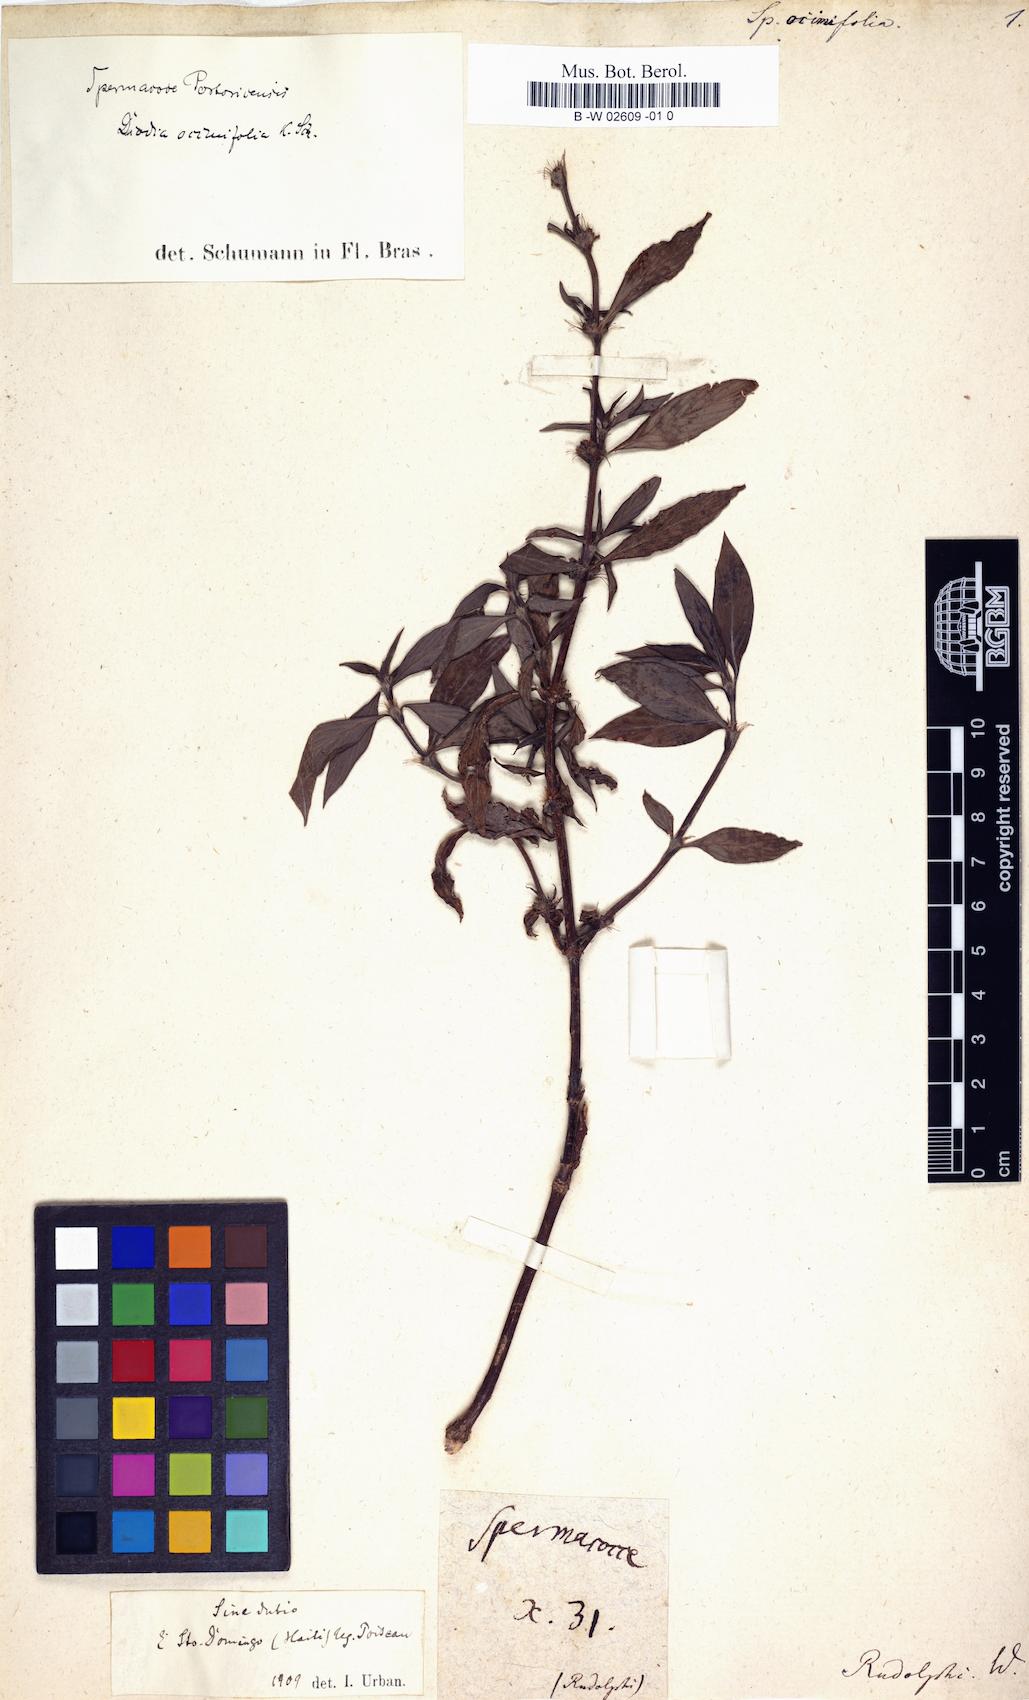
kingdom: Plantae
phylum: Tracheophyta
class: Magnoliopsida
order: Gentianales
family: Rubiaceae
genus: Spermacoce
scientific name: Spermacoce ocymifolia
